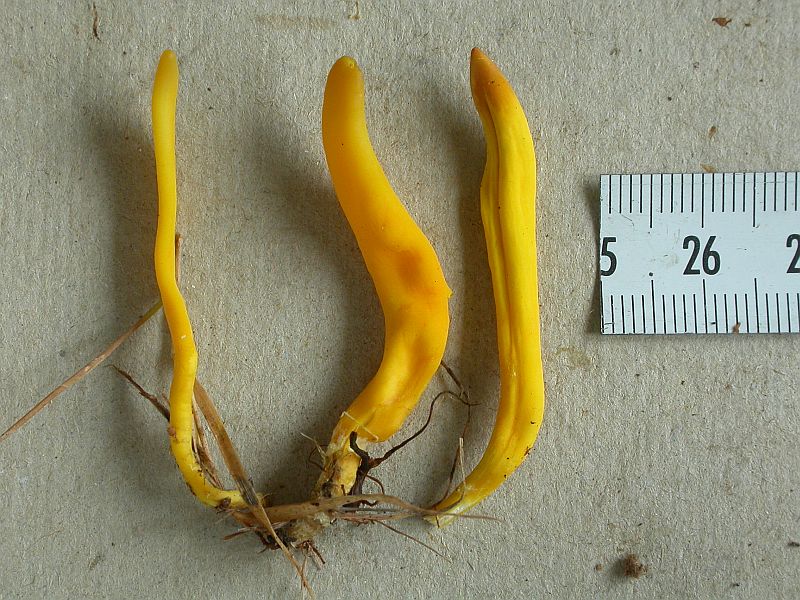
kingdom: Fungi
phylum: Basidiomycota
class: Agaricomycetes
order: Agaricales
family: Clavariaceae
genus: Clavulinopsis
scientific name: Clavulinopsis helvola
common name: orangegul køllesvamp
